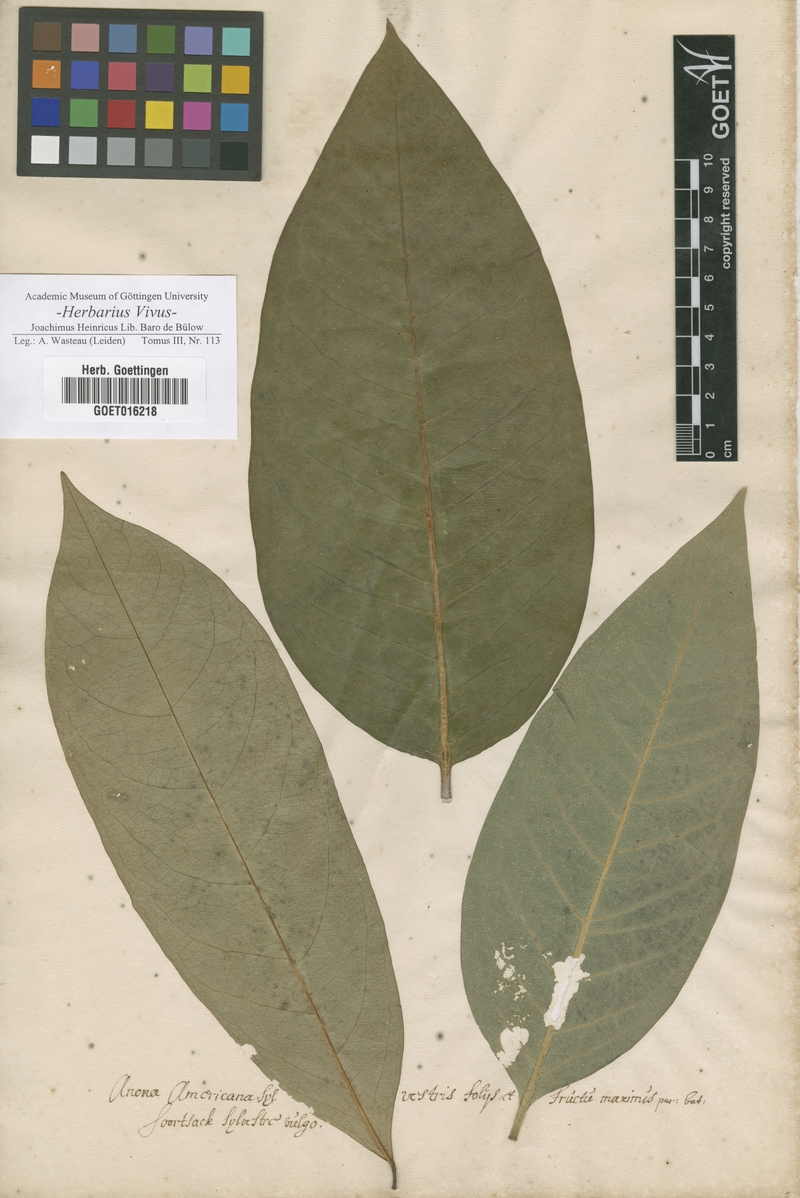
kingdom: Plantae
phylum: Tracheophyta
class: Magnoliopsida
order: Magnoliales
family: Annonaceae
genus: Annona
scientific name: Annona
